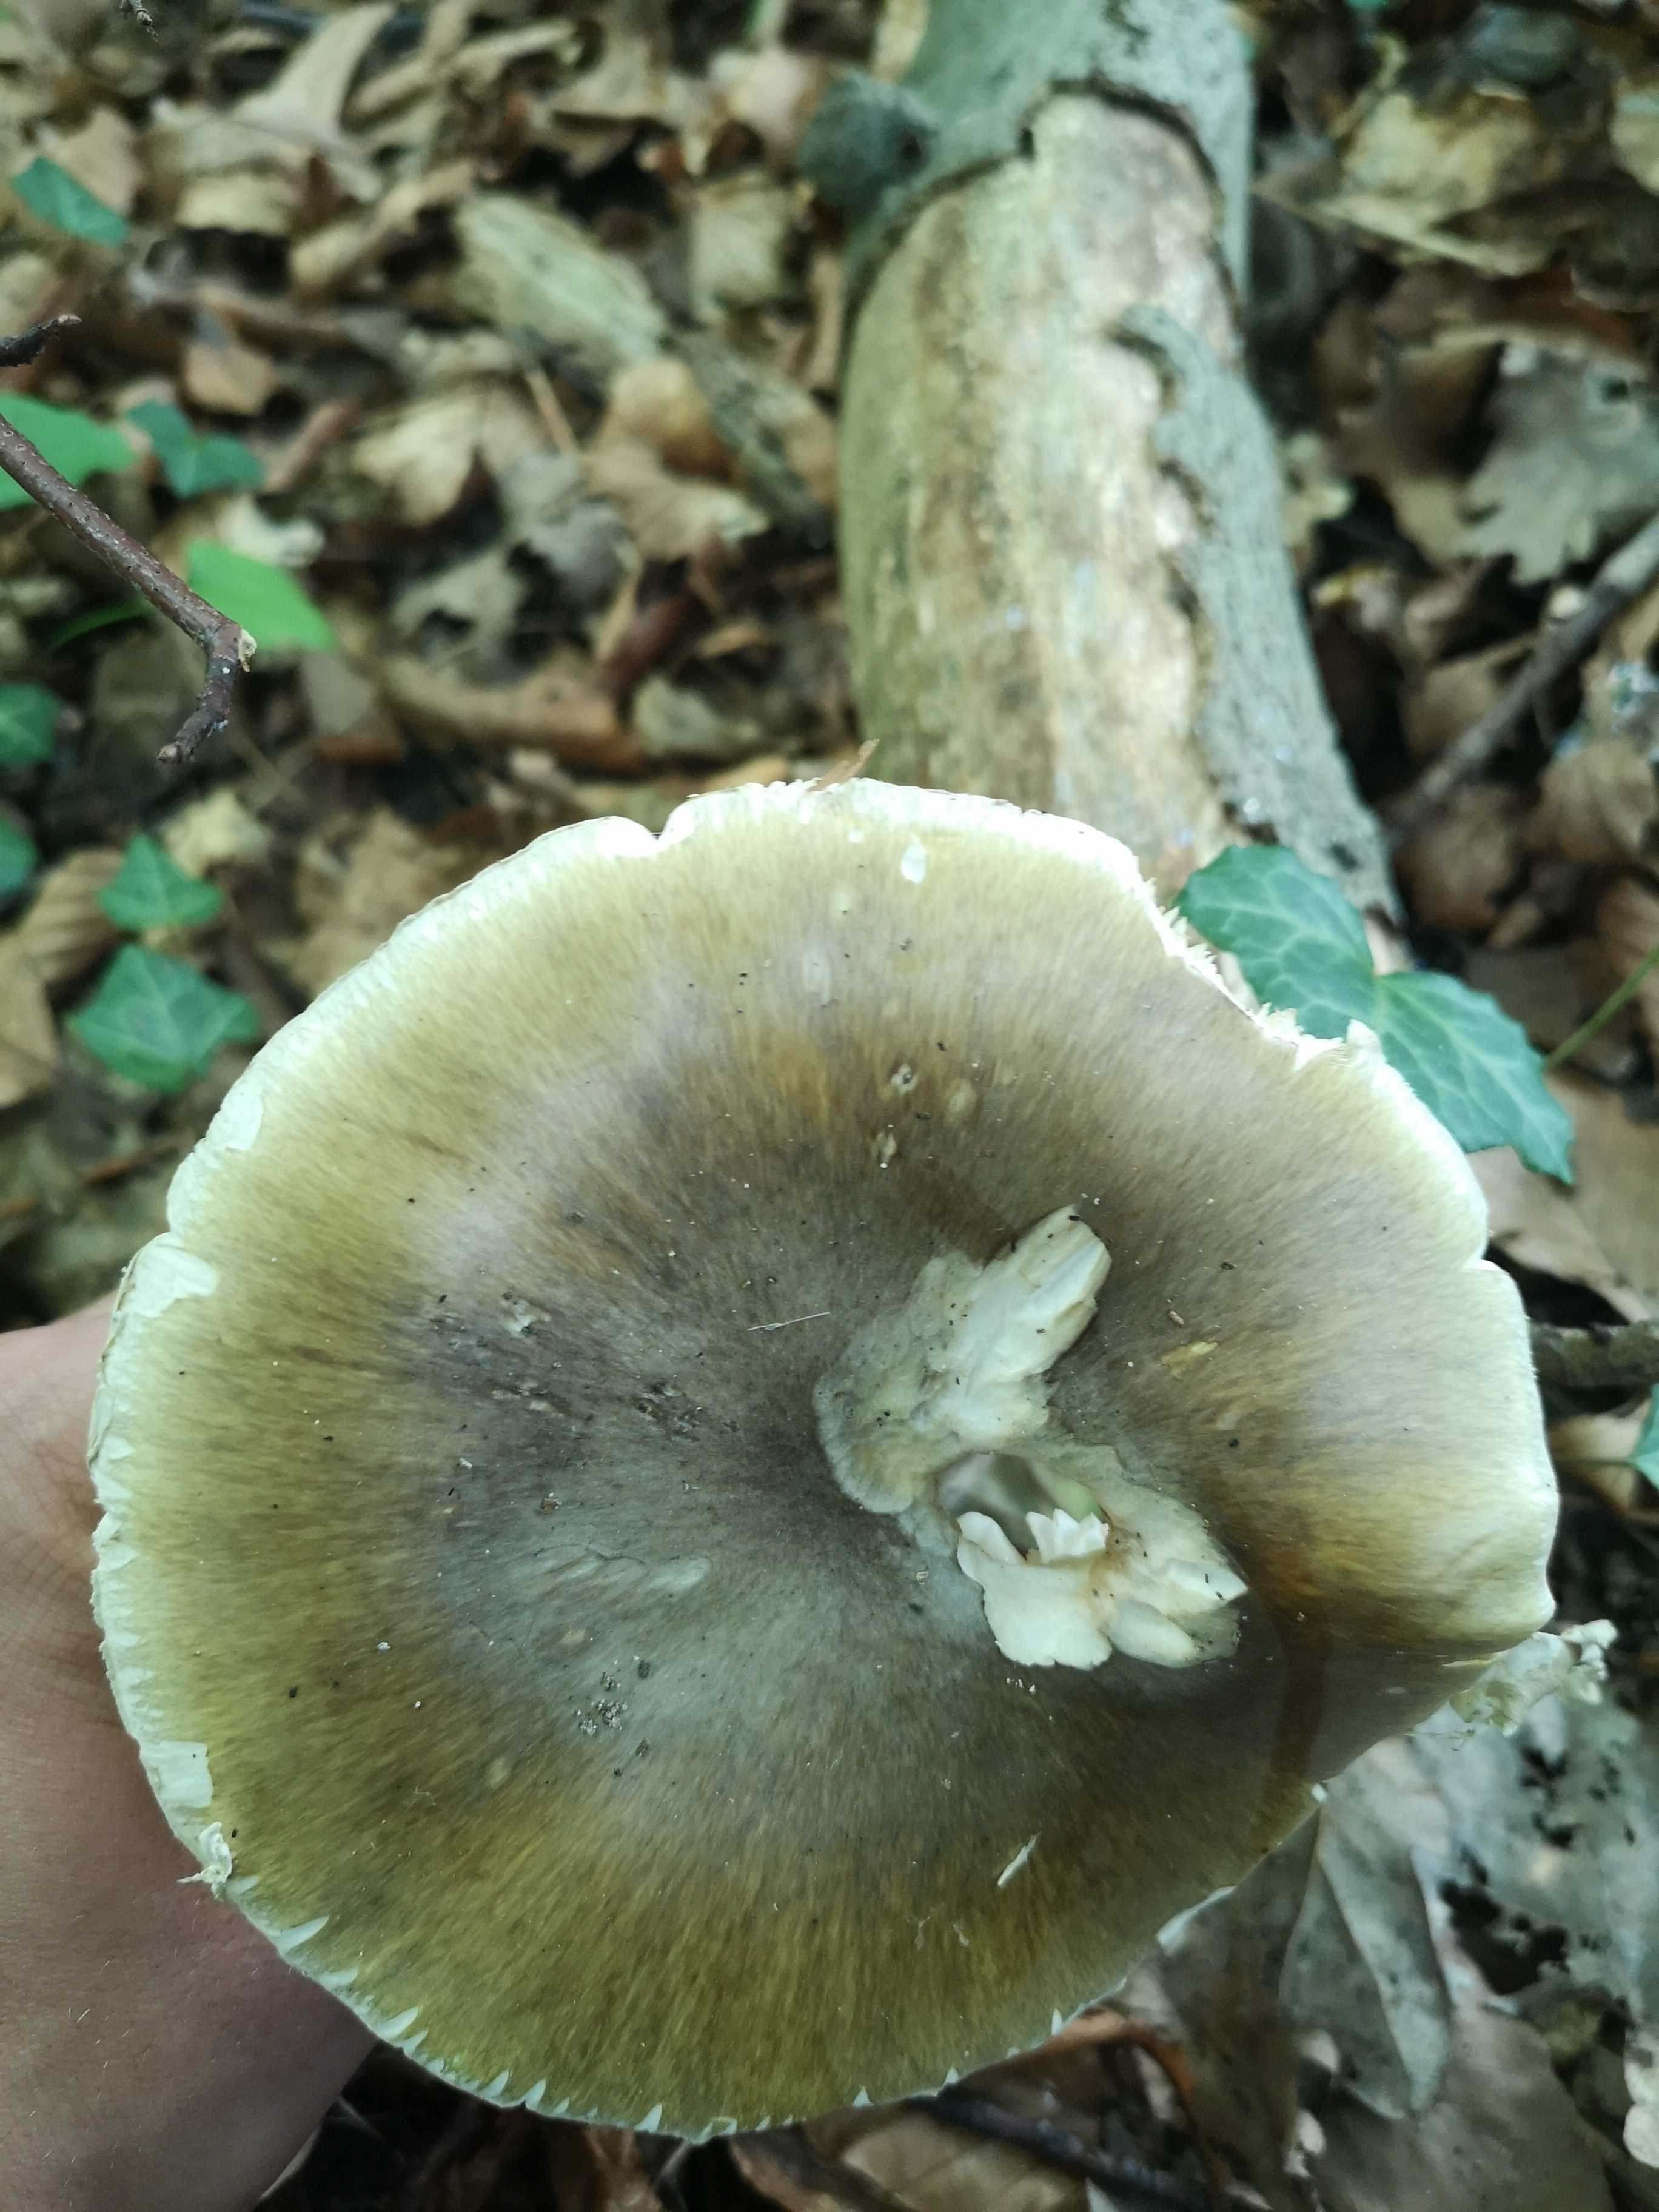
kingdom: Fungi
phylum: Basidiomycota
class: Agaricomycetes
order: Agaricales
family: Amanitaceae
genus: Amanita
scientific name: Amanita phalloides
